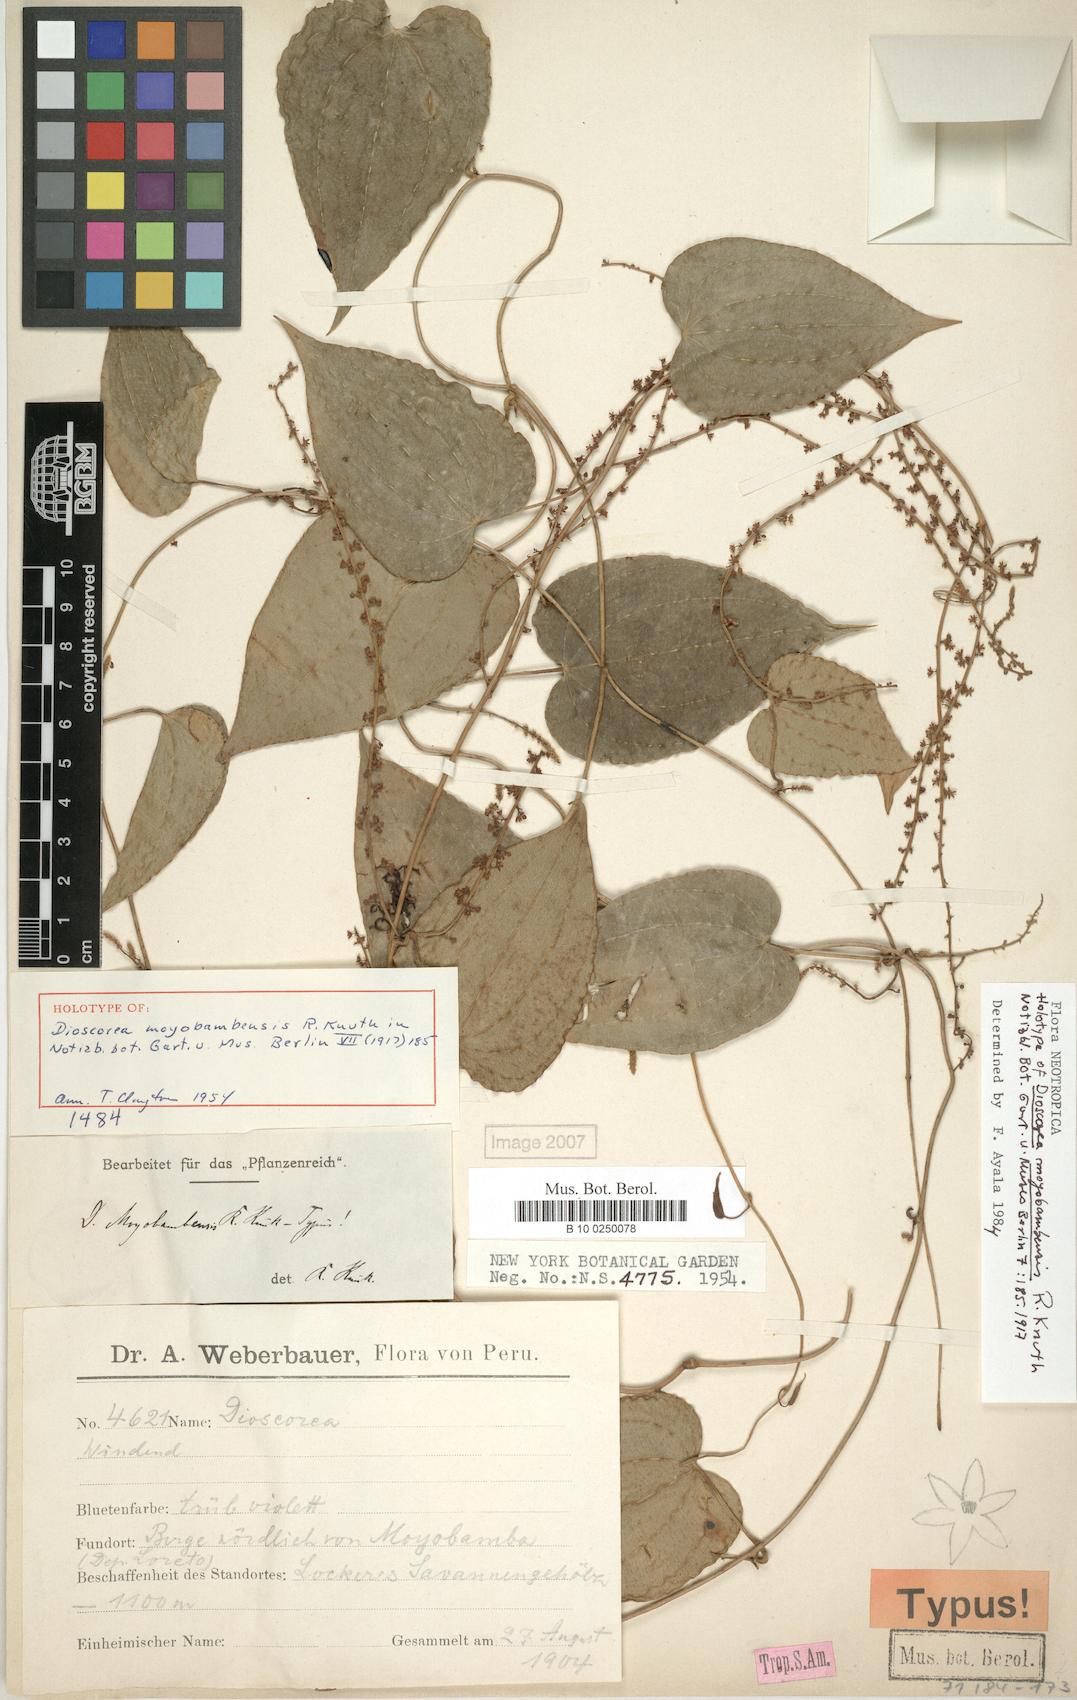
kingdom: Plantae
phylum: Tracheophyta
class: Liliopsida
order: Dioscoreales
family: Dioscoreaceae
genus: Dioscorea
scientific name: Dioscorea moyobambensis
